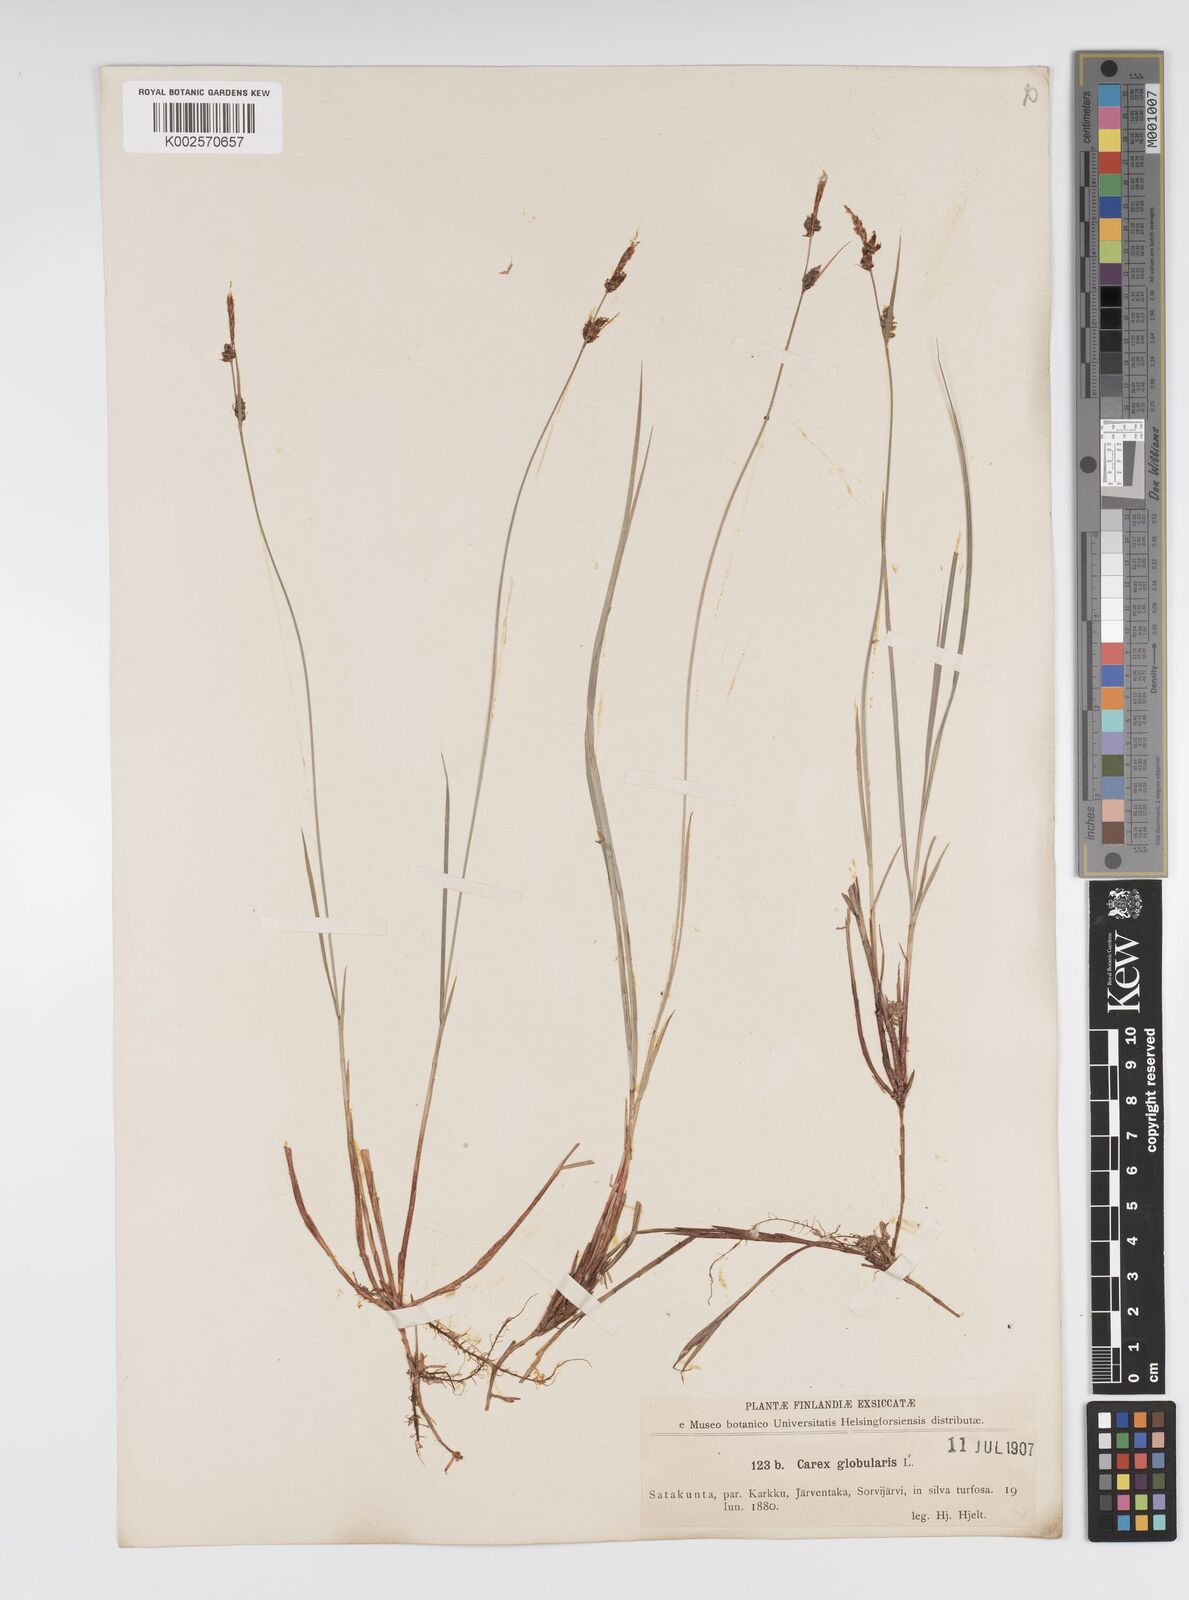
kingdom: Plantae
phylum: Tracheophyta
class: Liliopsida
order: Poales
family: Cyperaceae
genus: Carex
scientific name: Carex globularis
